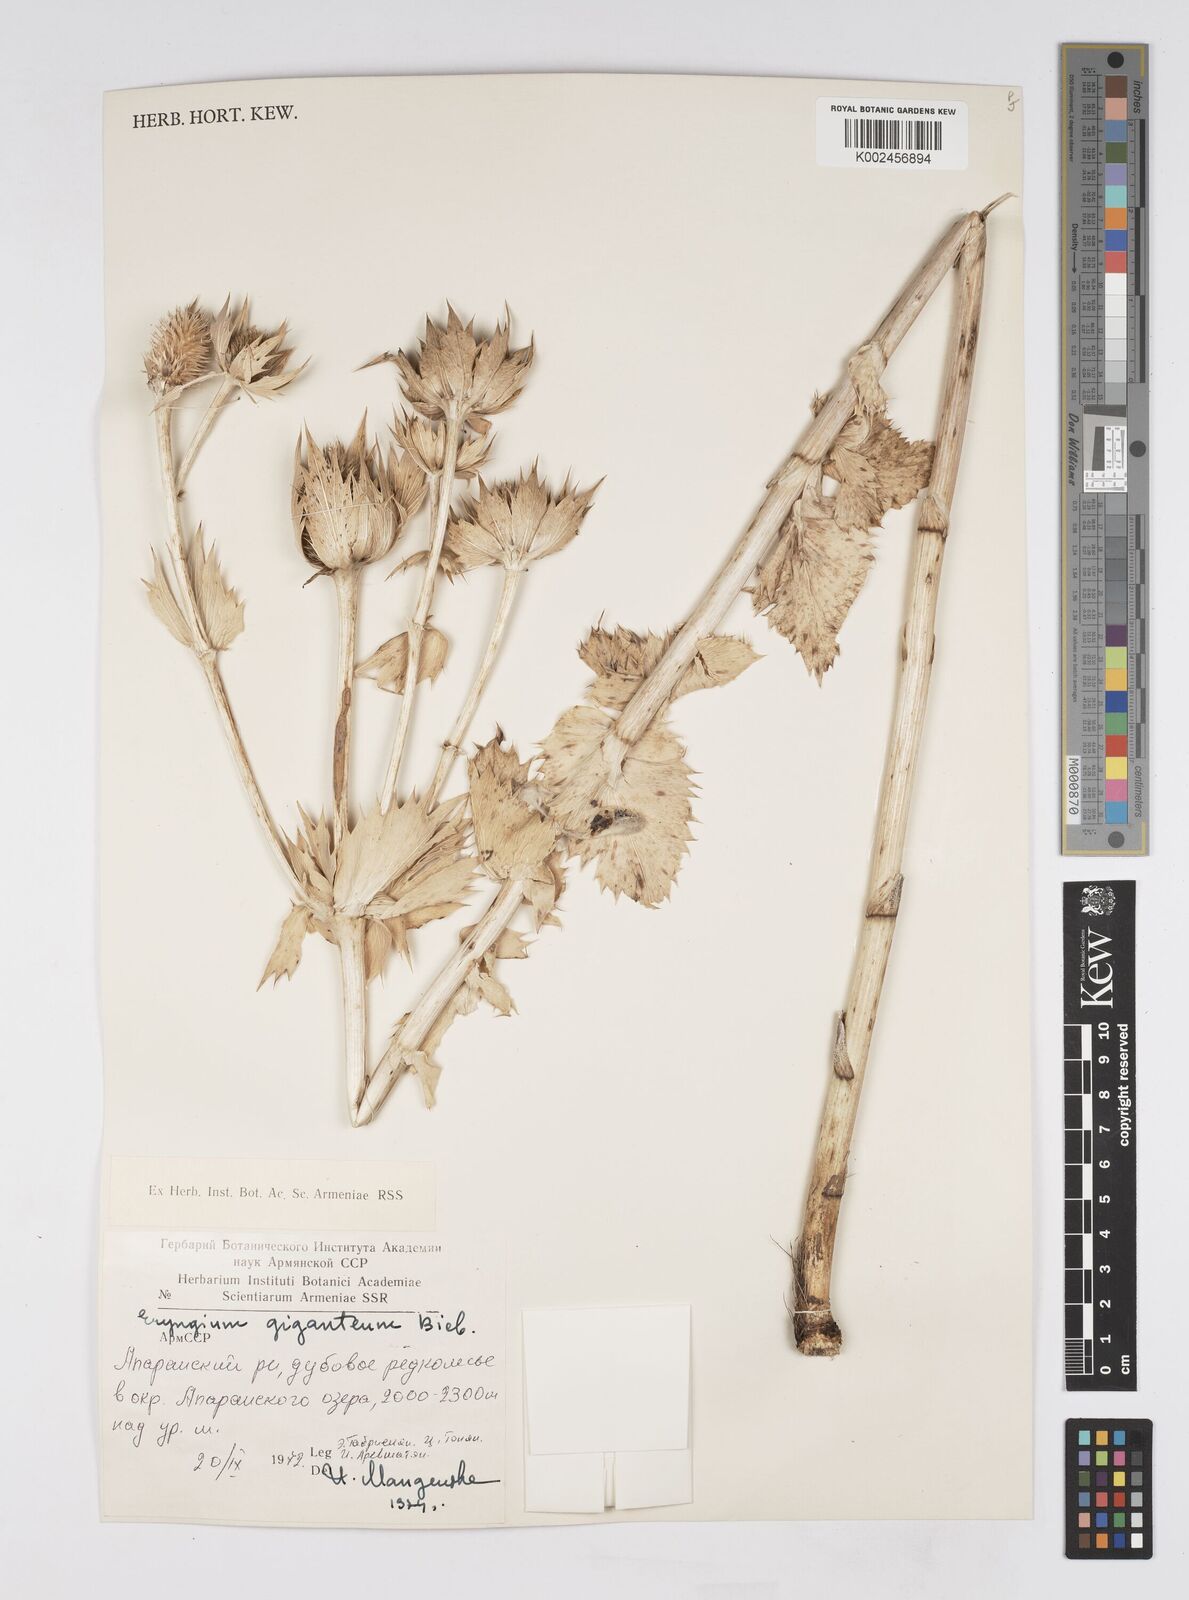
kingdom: Plantae
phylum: Tracheophyta
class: Magnoliopsida
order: Apiales
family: Apiaceae
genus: Eryngium
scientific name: Eryngium giganteum
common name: Tall eryngo
